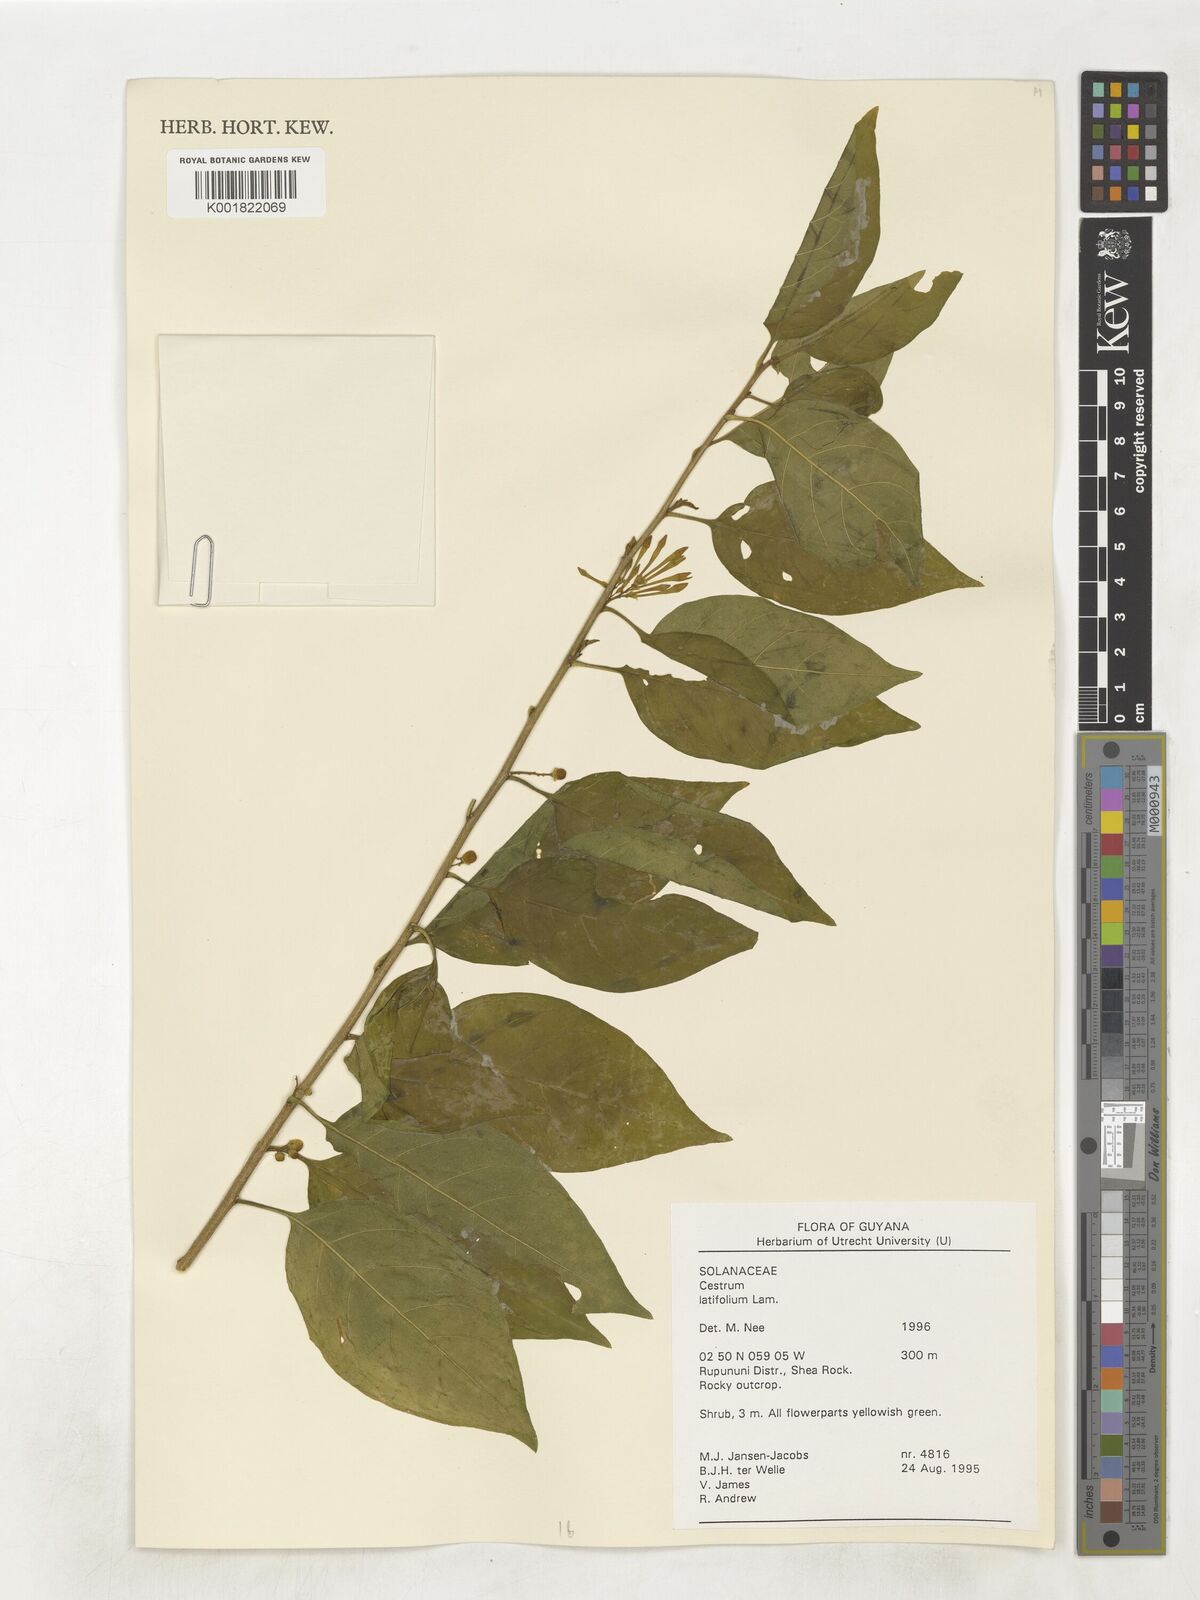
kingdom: Plantae
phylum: Tracheophyta
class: Magnoliopsida
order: Solanales
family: Solanaceae
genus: Cestrum
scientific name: Cestrum latifolium
